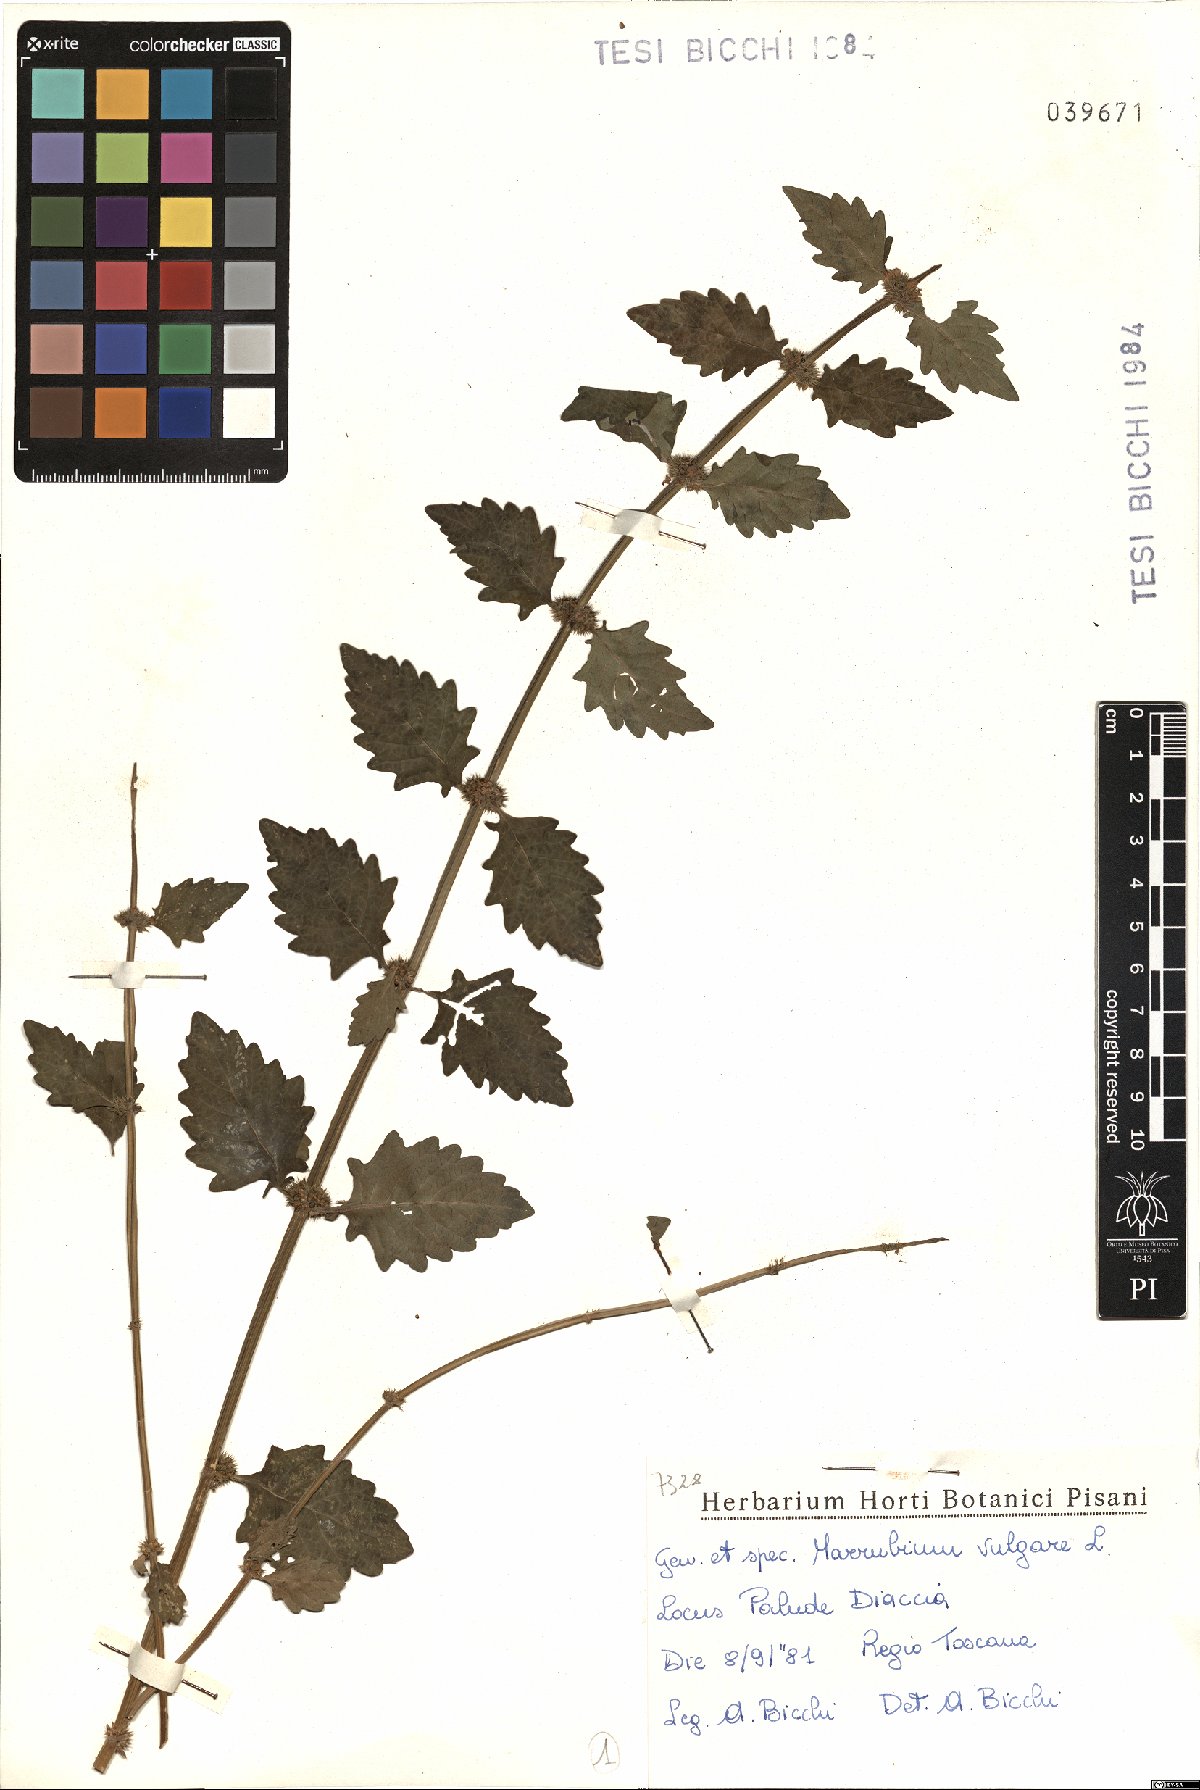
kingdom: Plantae
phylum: Tracheophyta
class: Magnoliopsida
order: Lamiales
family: Lamiaceae
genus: Marrubium
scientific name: Marrubium vulgare
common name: Horehound
